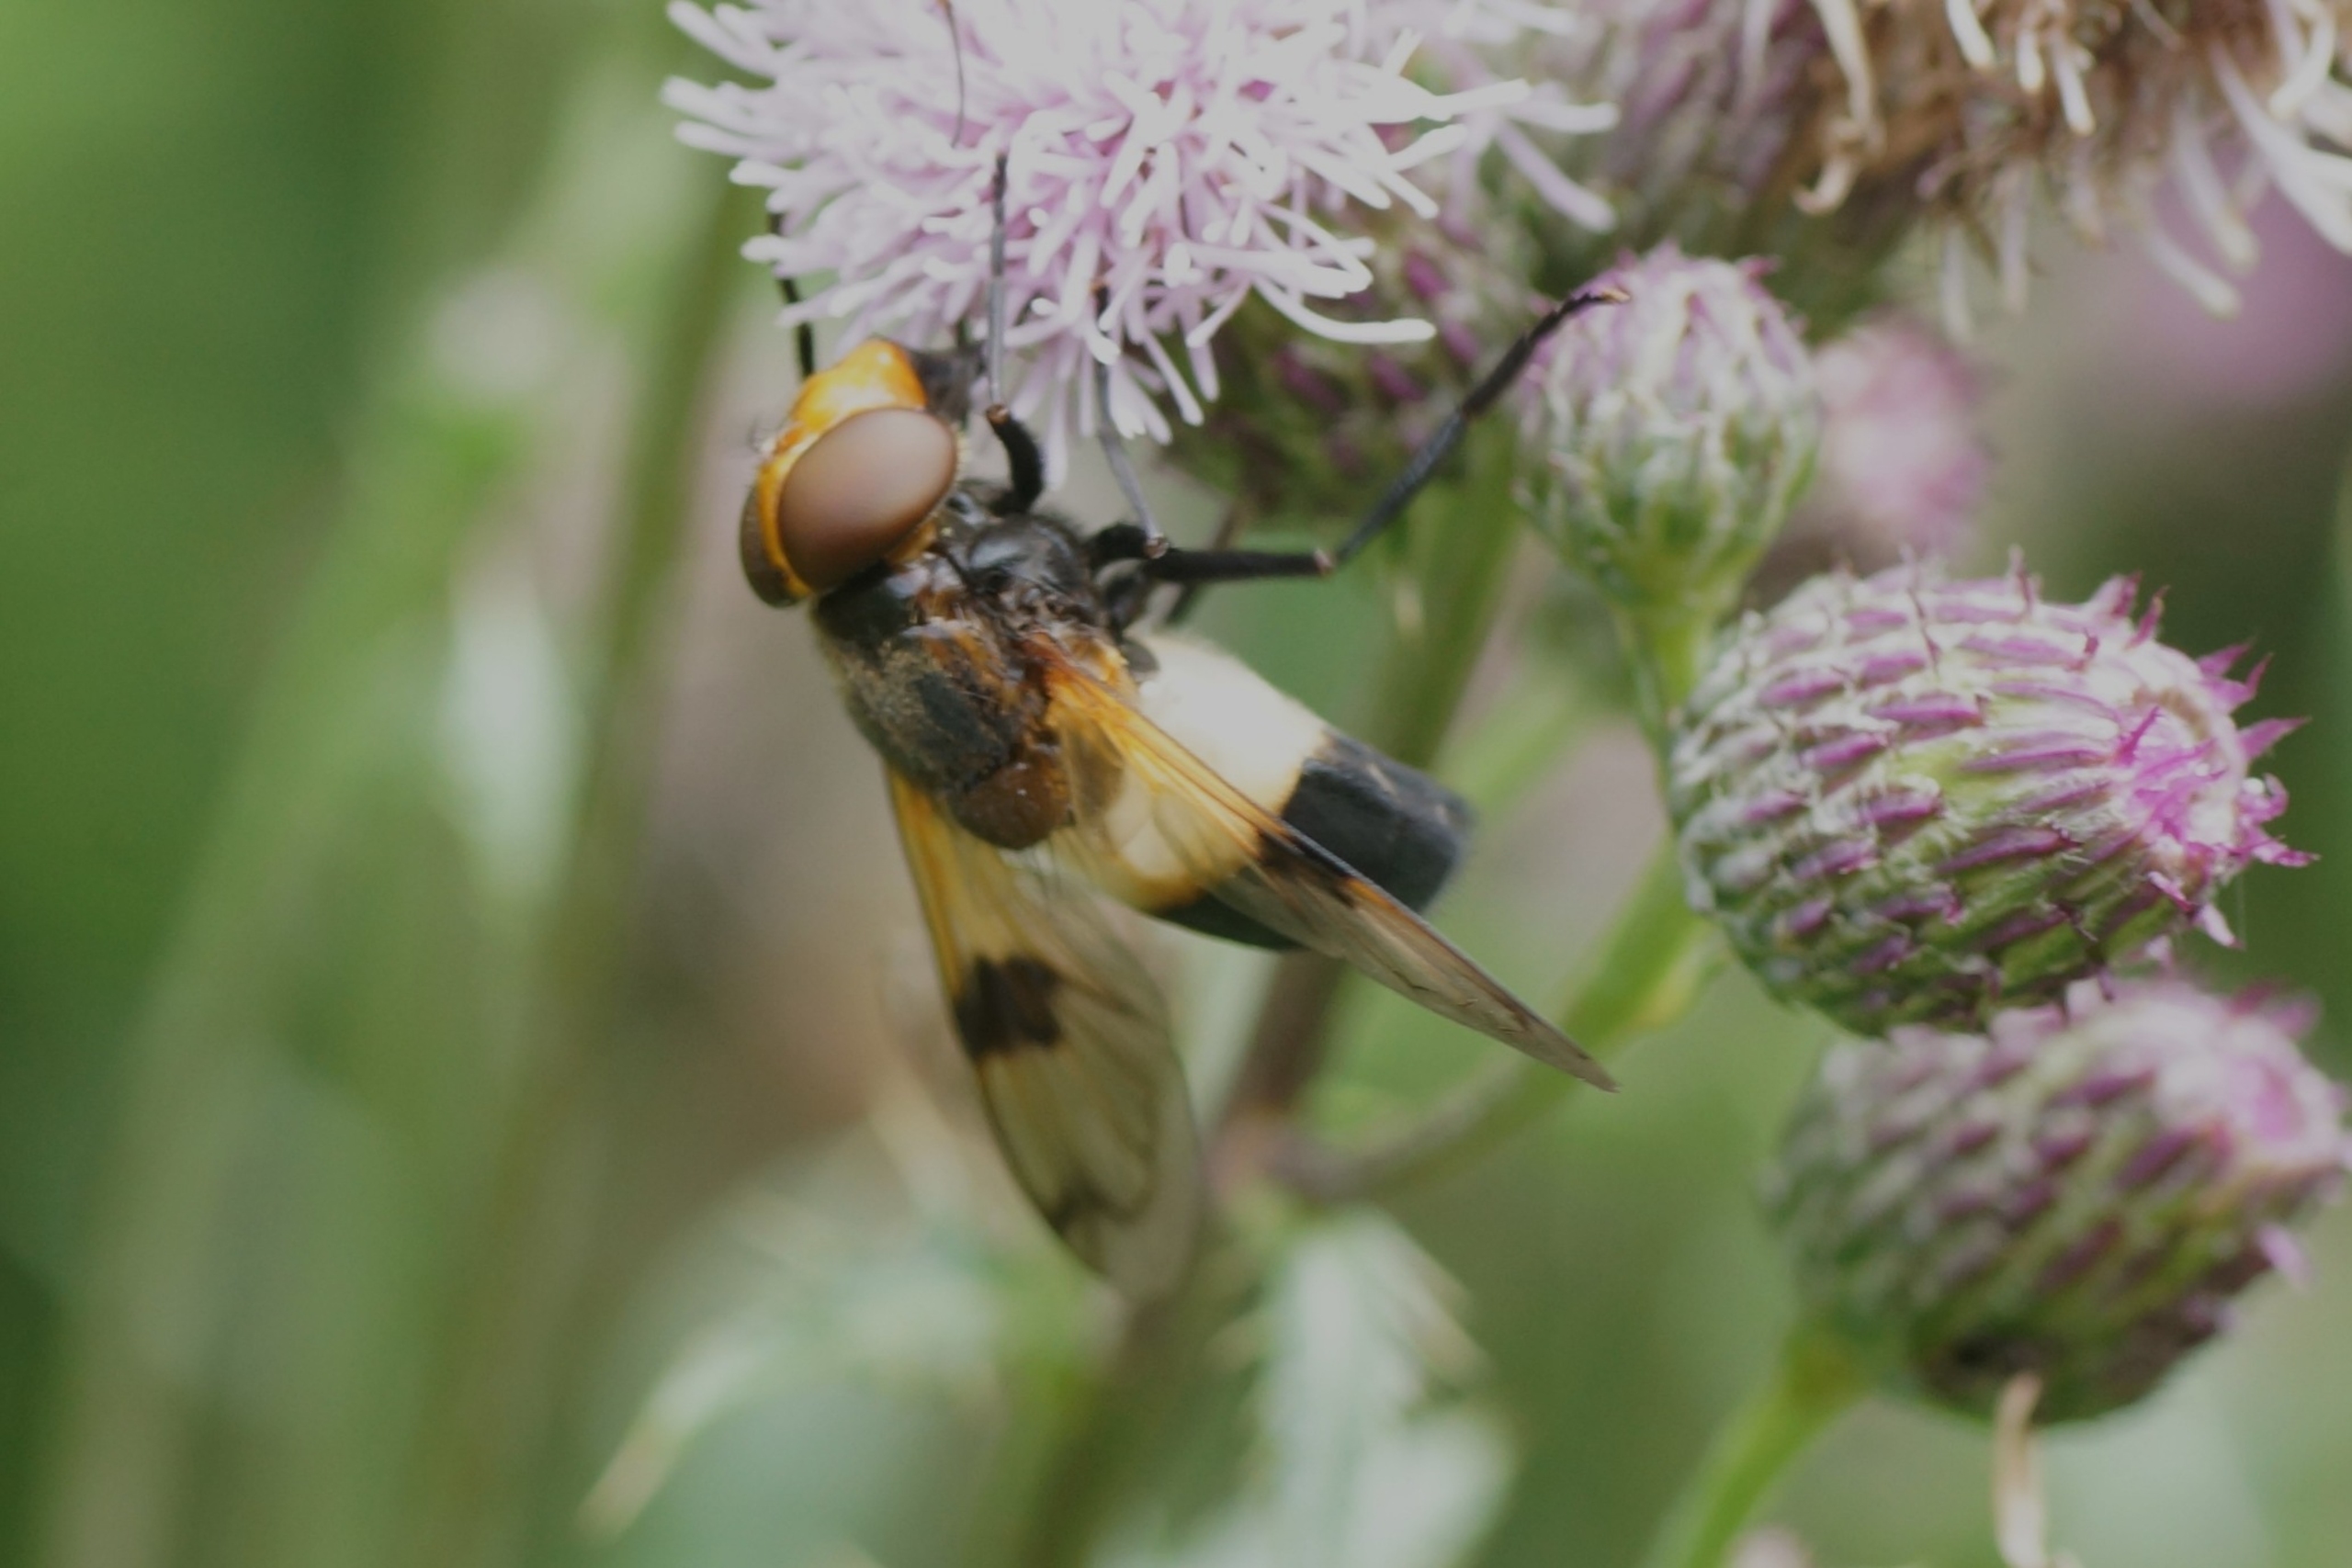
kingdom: Animalia
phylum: Arthropoda
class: Insecta
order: Diptera
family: Syrphidae
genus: Volucella
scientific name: Volucella pellucens
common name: Hvidbåndet humlesvirreflue
